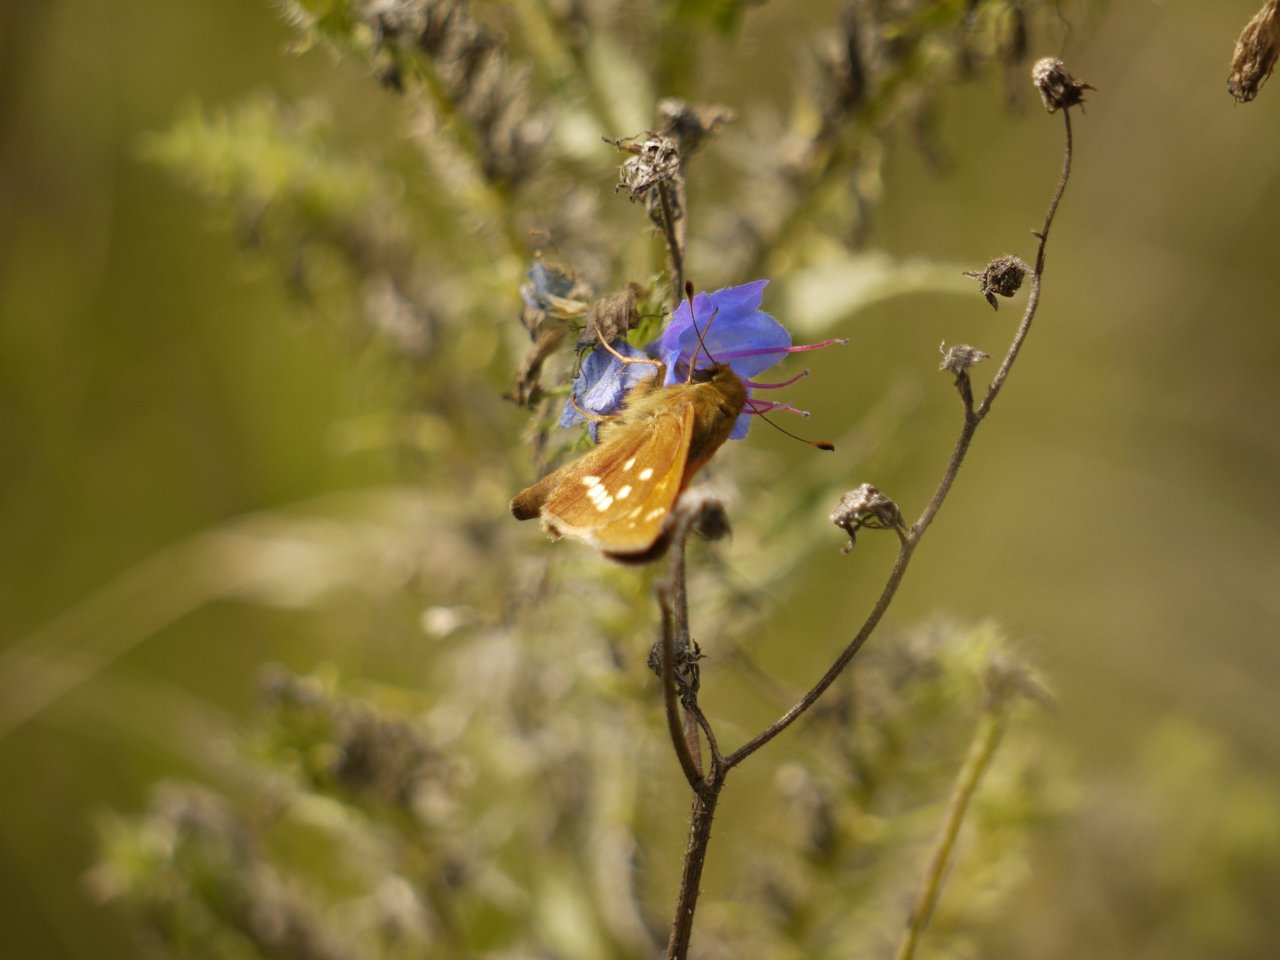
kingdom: Animalia
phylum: Arthropoda
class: Insecta
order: Lepidoptera
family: Hesperiidae
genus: Hesperia
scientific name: Hesperia leonardus
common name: Leonard's Skipper
